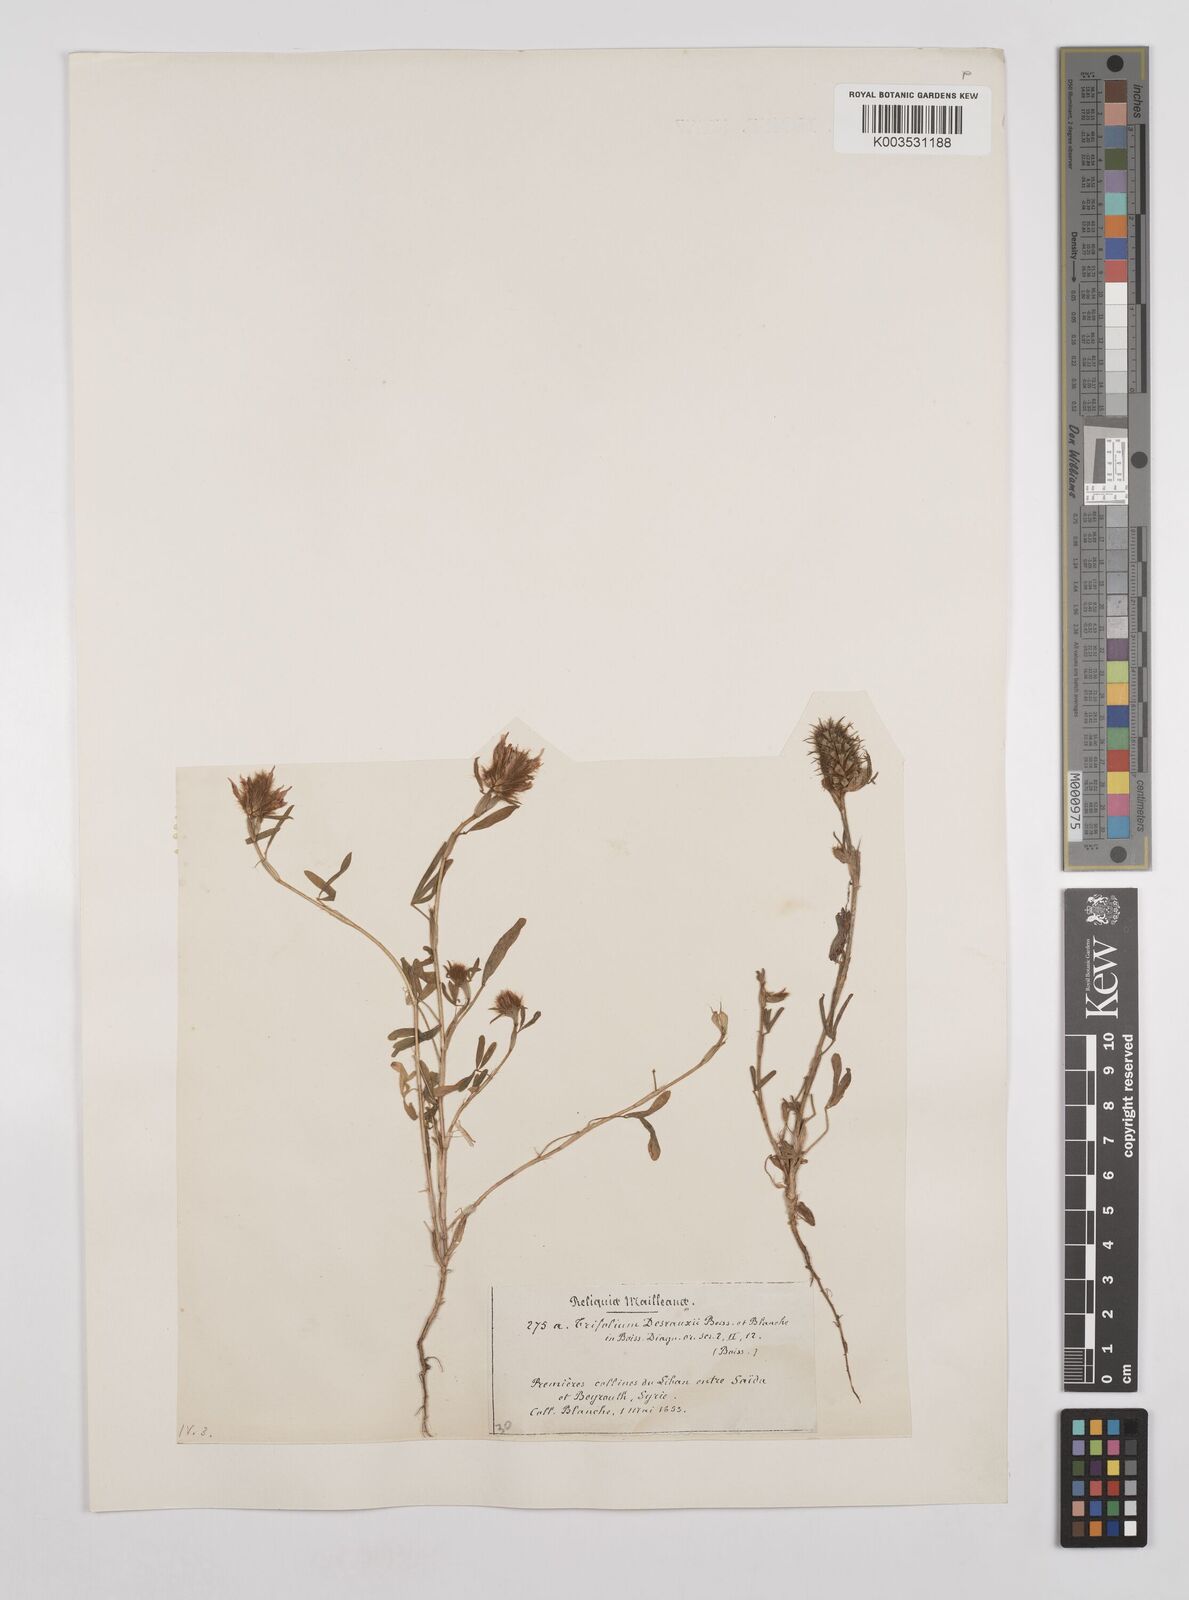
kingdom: Plantae
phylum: Tracheophyta
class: Magnoliopsida
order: Fabales
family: Fabaceae
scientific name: Fabaceae
